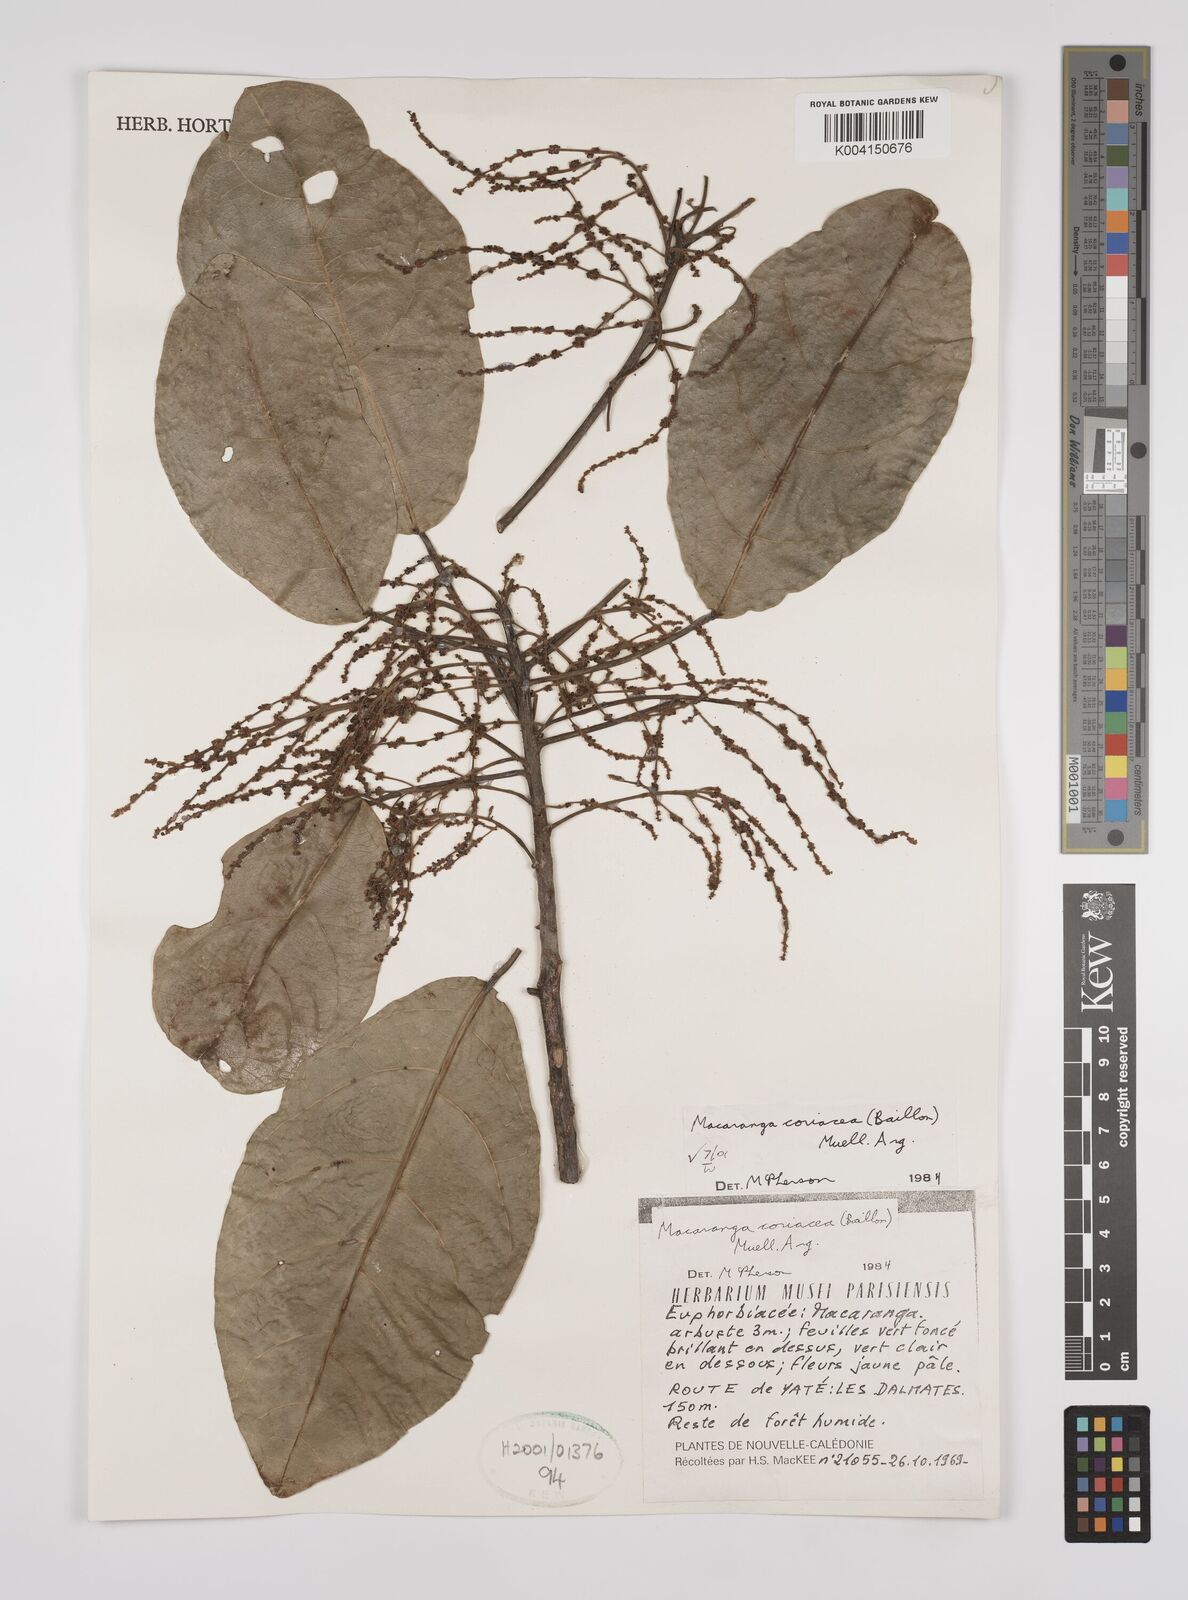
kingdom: Plantae
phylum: Tracheophyta
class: Magnoliopsida
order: Malpighiales
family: Euphorbiaceae
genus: Macaranga
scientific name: Macaranga coriacea
